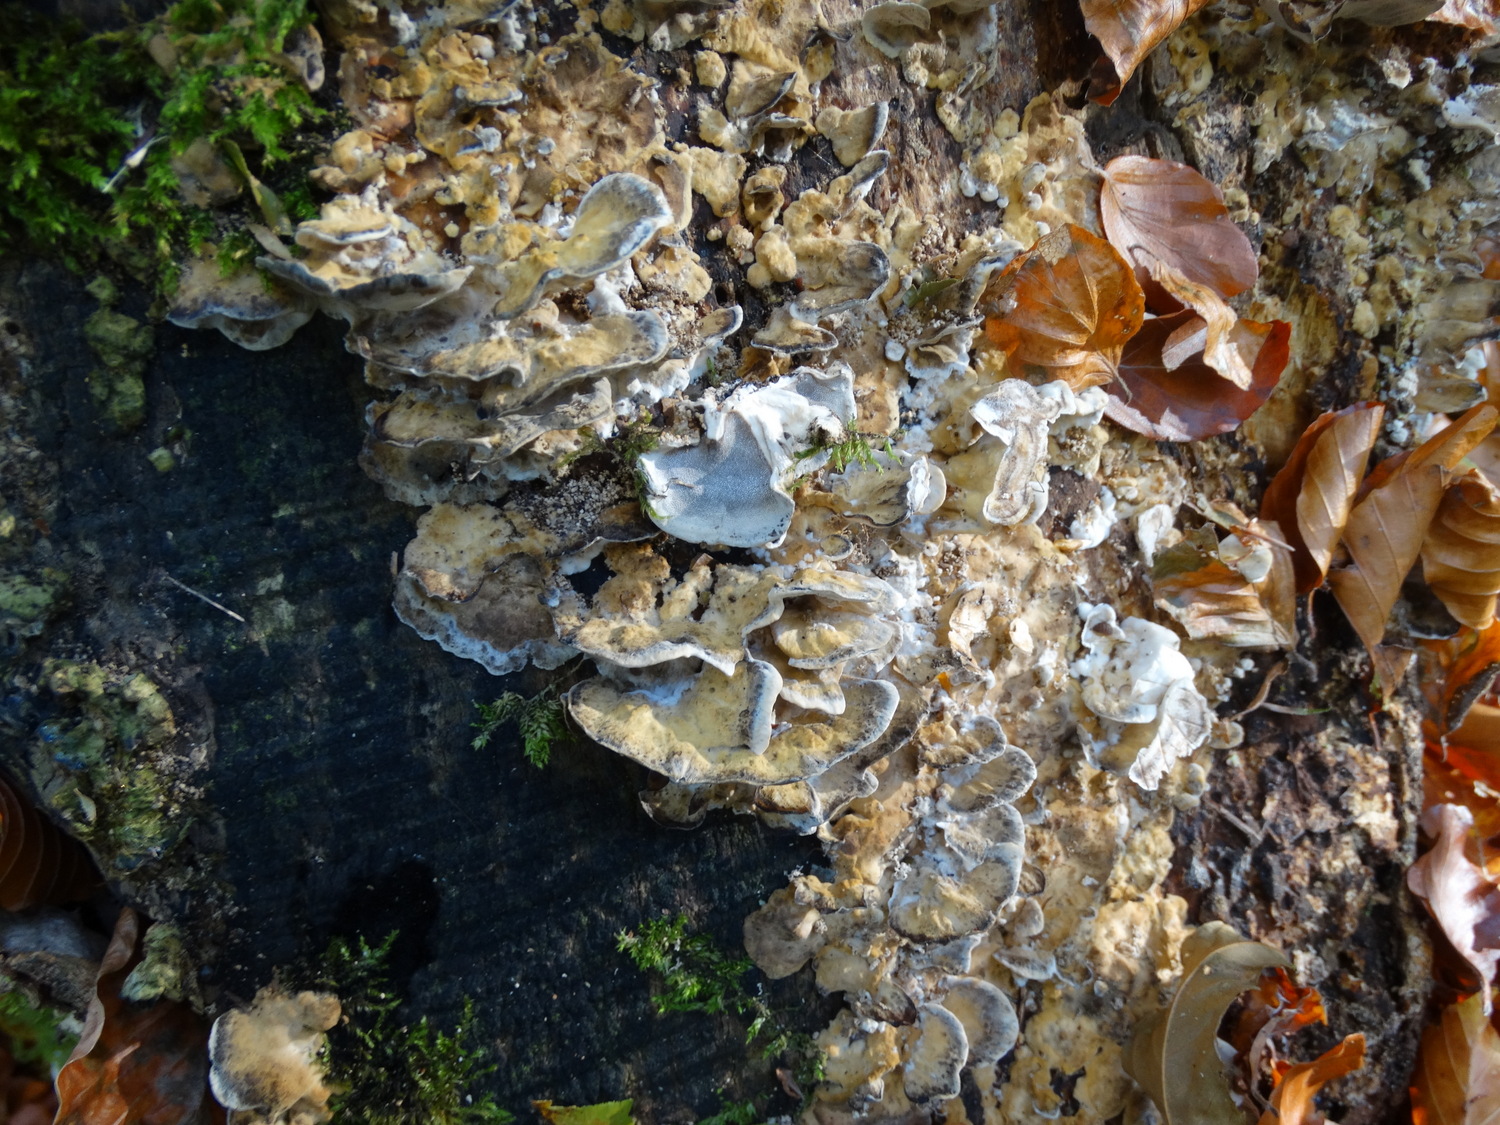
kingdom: Fungi
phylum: Basidiomycota
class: Agaricomycetes
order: Polyporales
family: Phanerochaetaceae
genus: Bjerkandera
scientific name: Bjerkandera adusta
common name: sveden sodporesvamp
